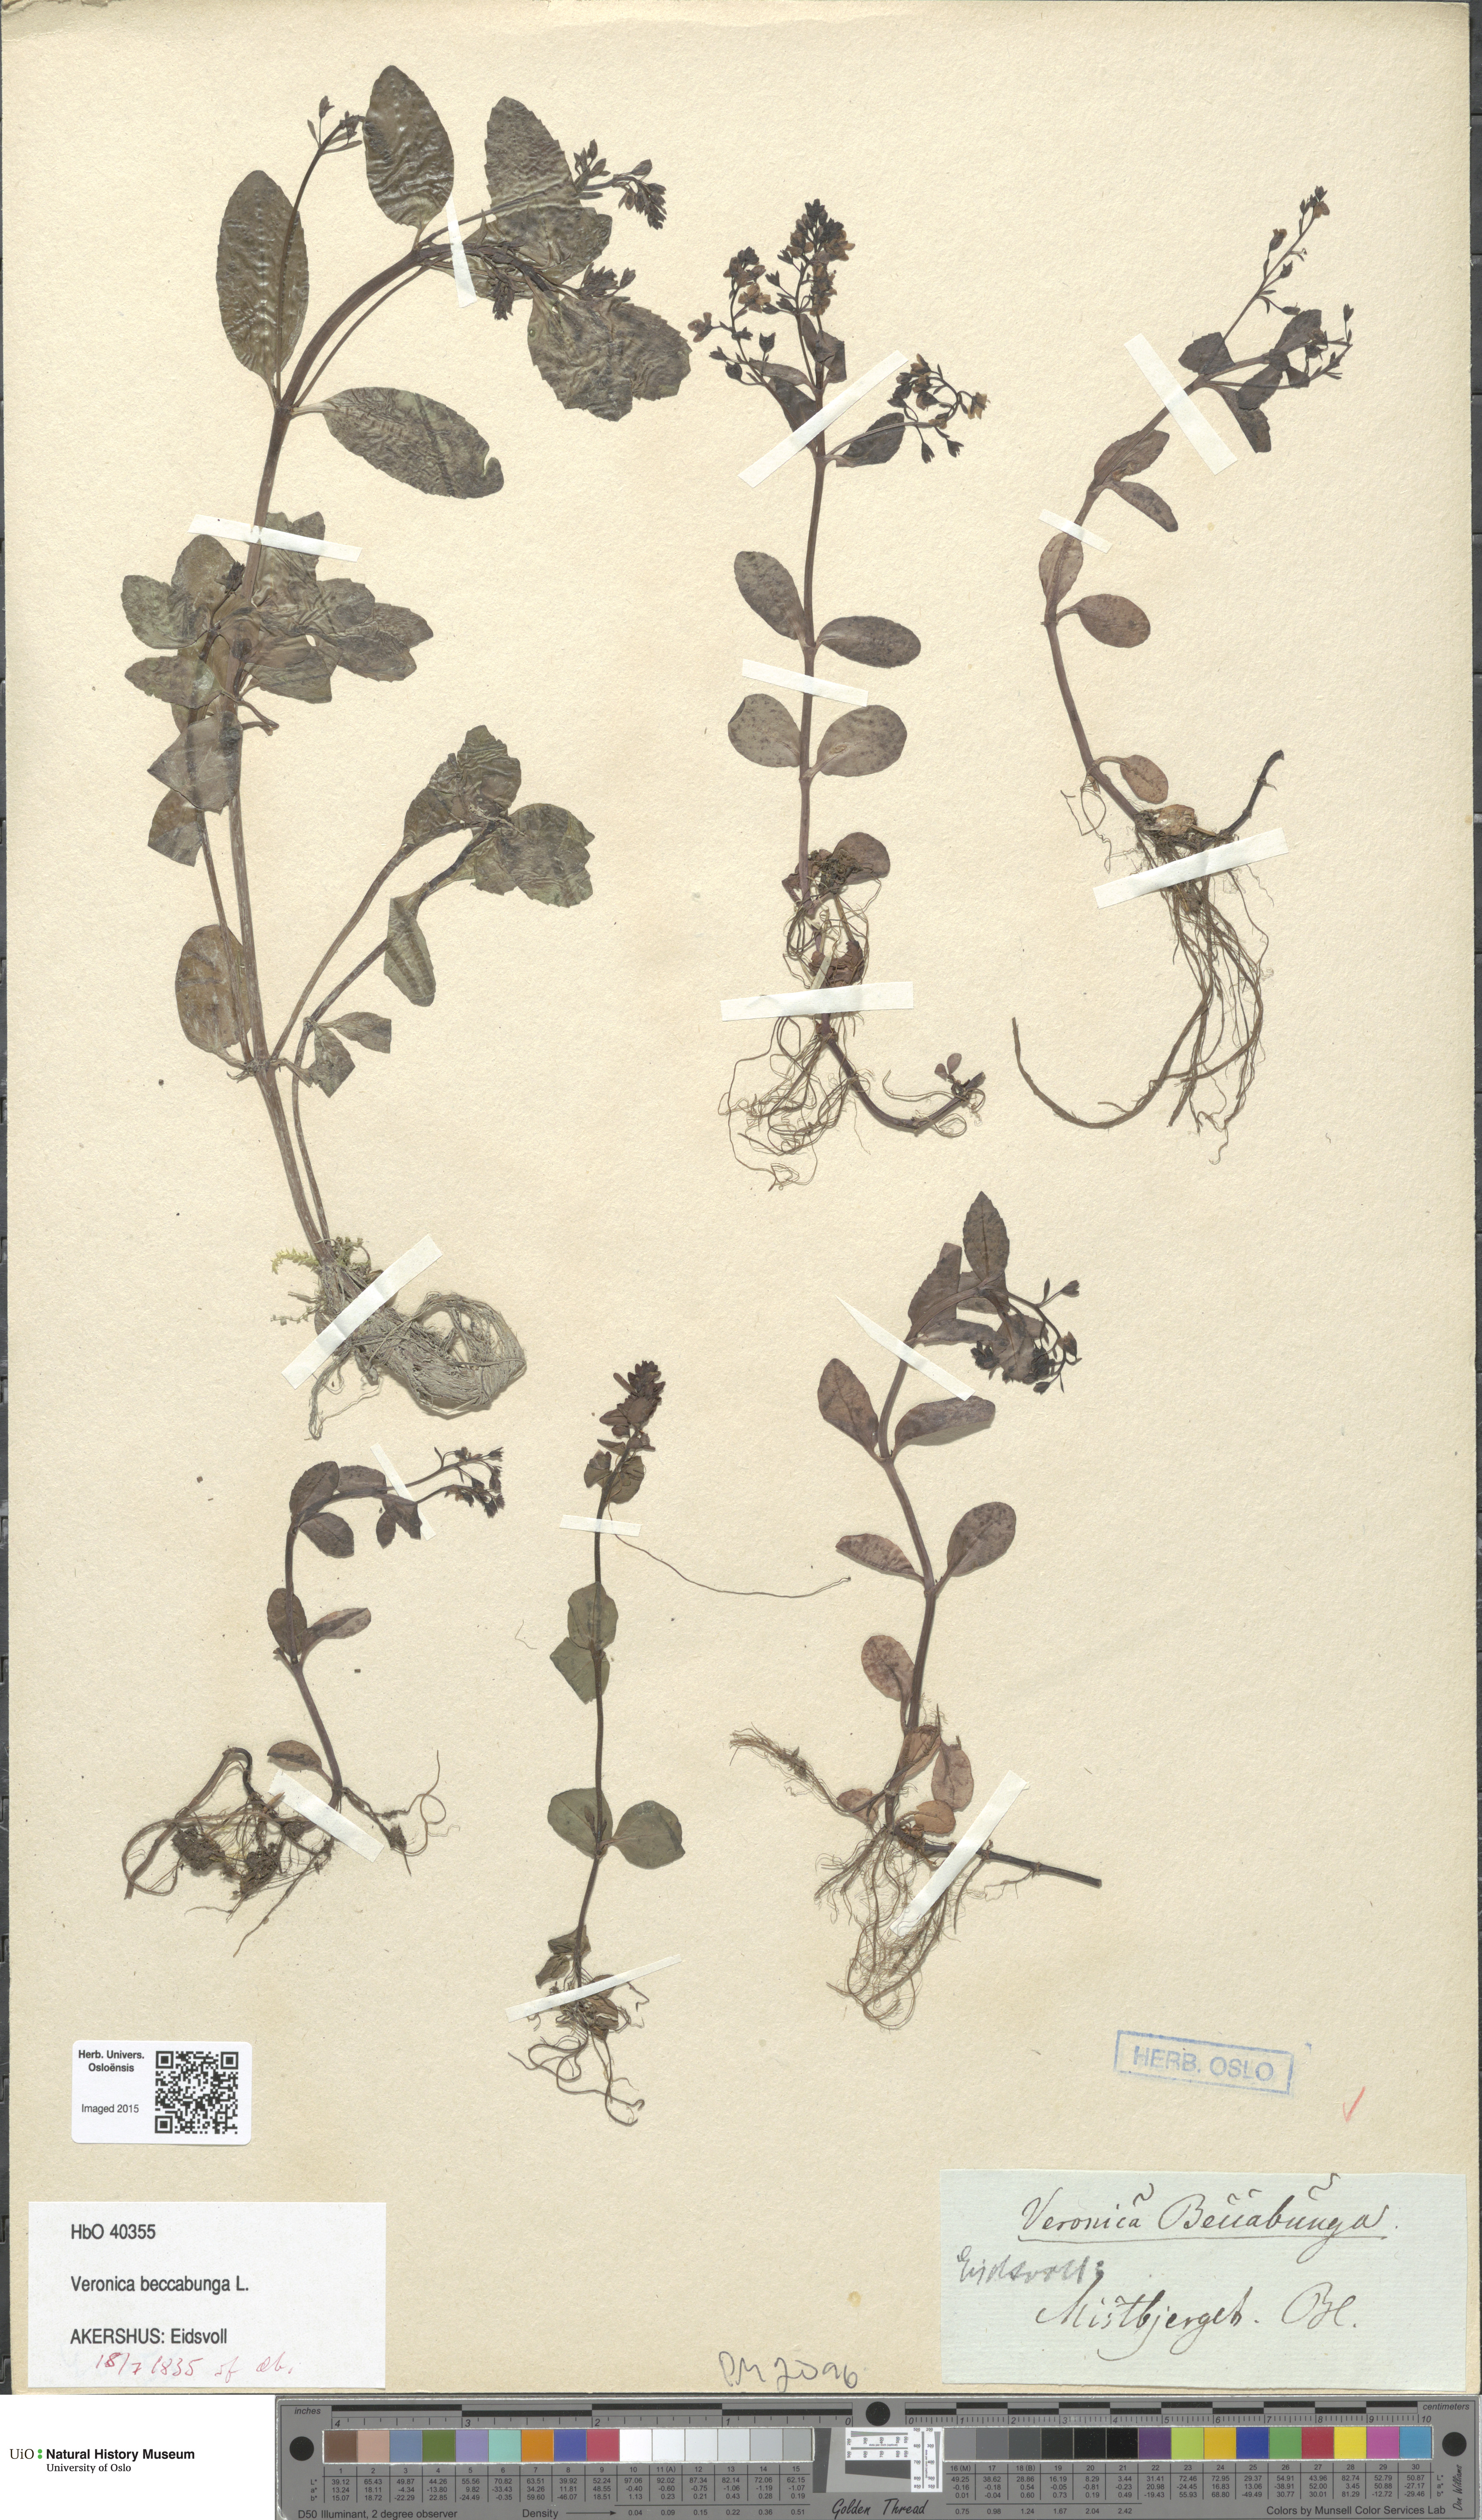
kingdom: Plantae
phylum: Tracheophyta
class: Magnoliopsida
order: Lamiales
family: Plantaginaceae
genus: Veronica
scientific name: Veronica beccabunga
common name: Brooklime
